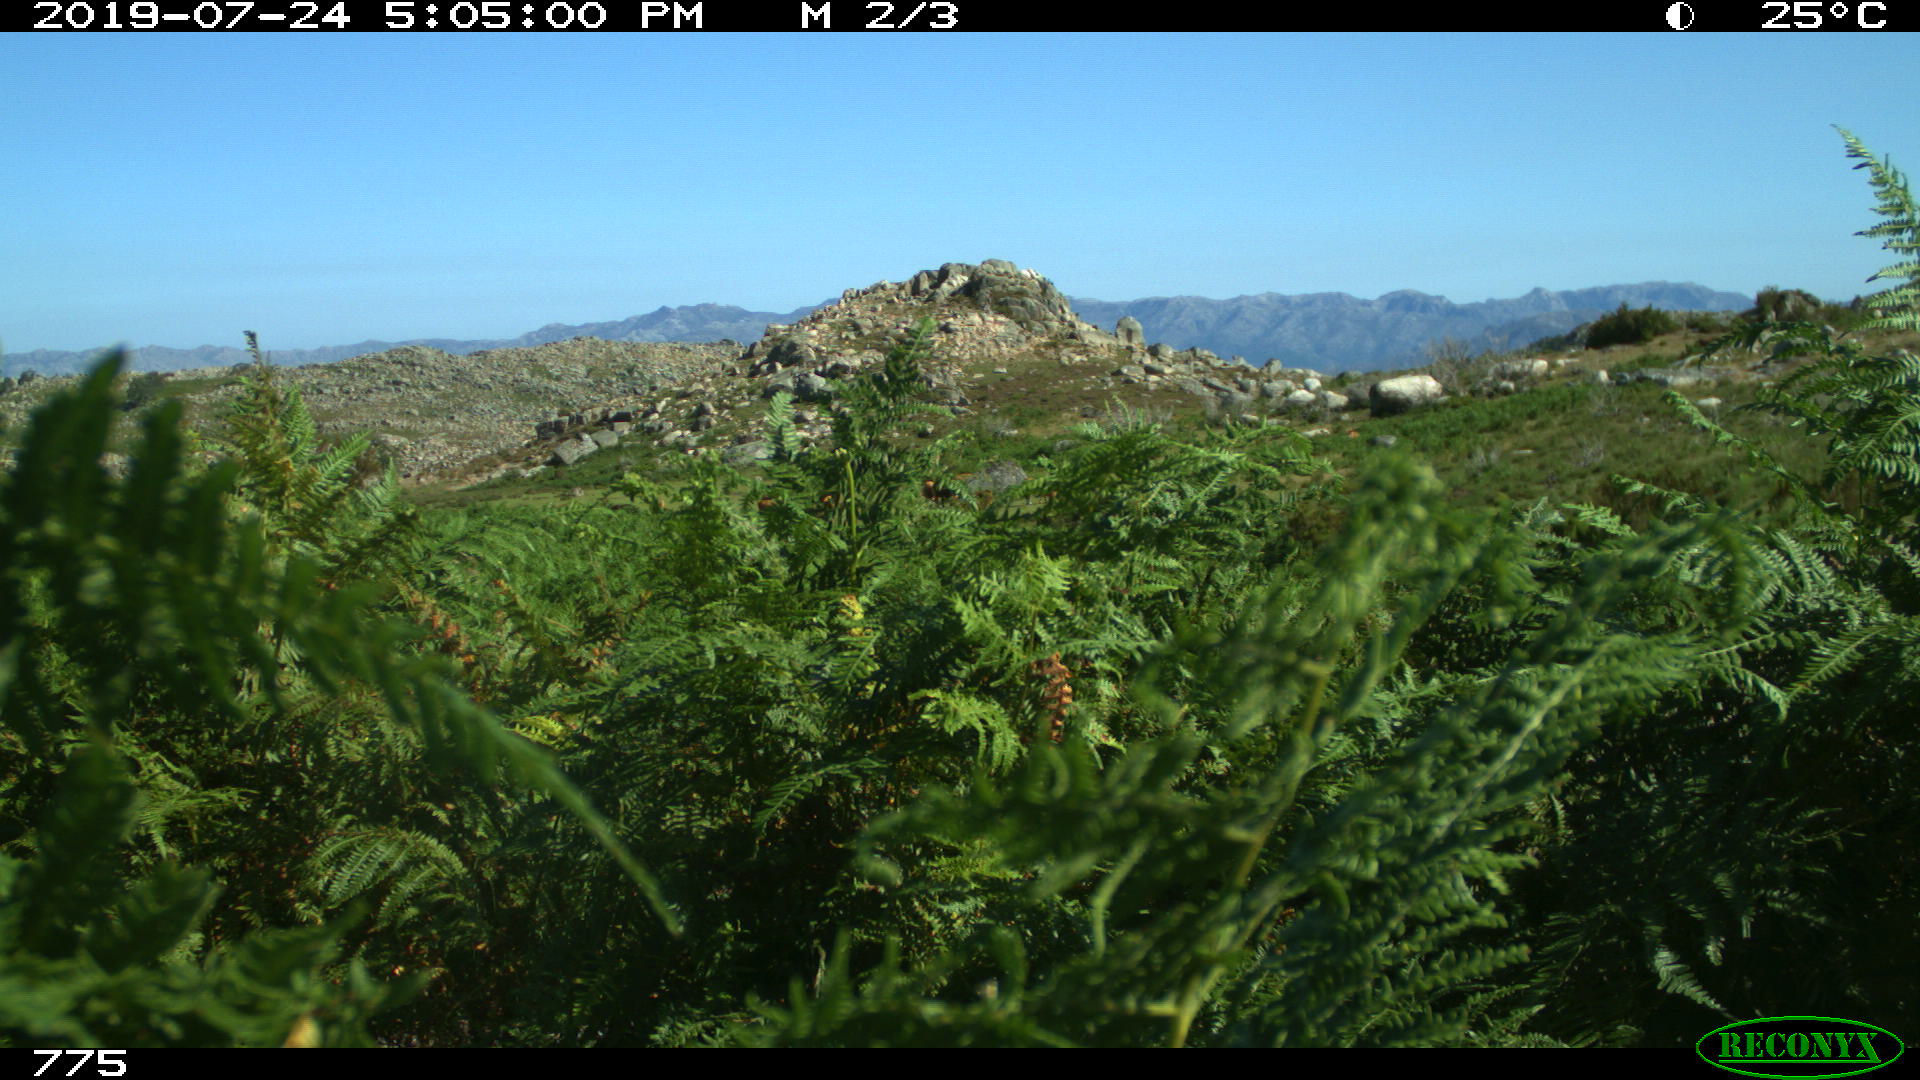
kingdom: Animalia
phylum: Chordata
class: Mammalia
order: Artiodactyla
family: Bovidae
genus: Bos
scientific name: Bos taurus
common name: Domesticated cattle
